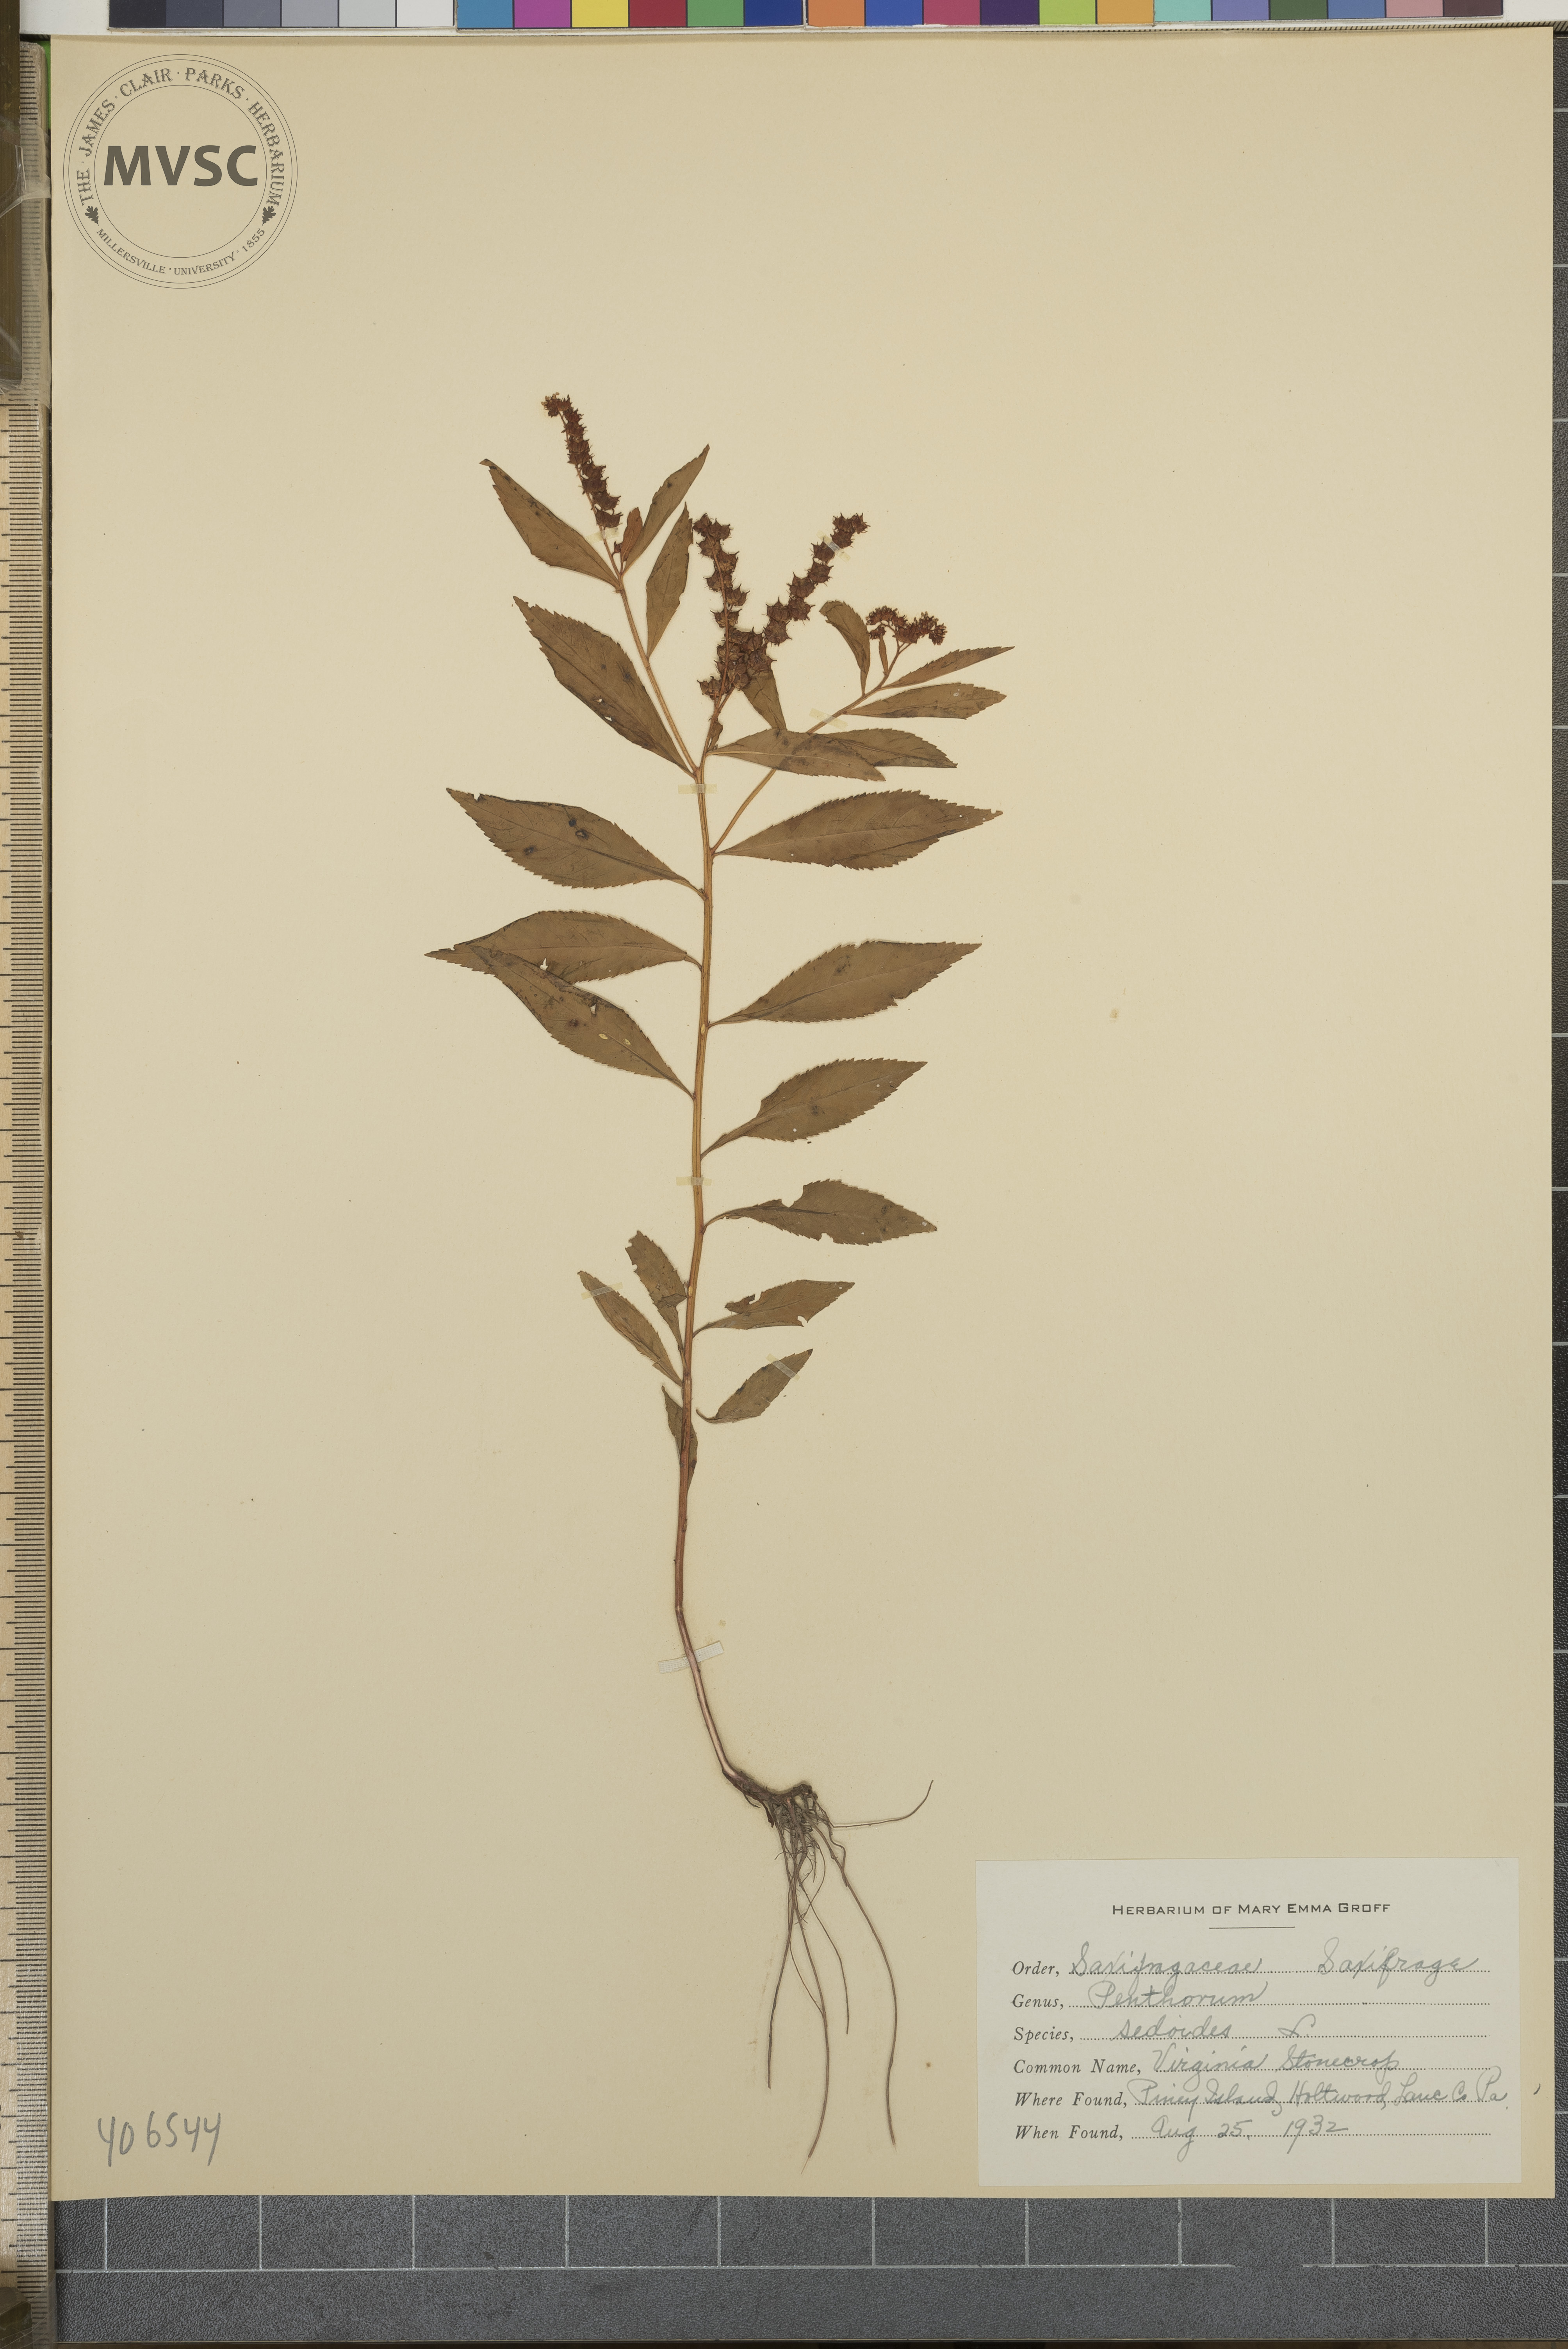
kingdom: Plantae
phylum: Tracheophyta
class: Magnoliopsida
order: Saxifragales
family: Penthoraceae
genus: Penthorum
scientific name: Penthorum sedoides
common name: Virginia stonecrop
